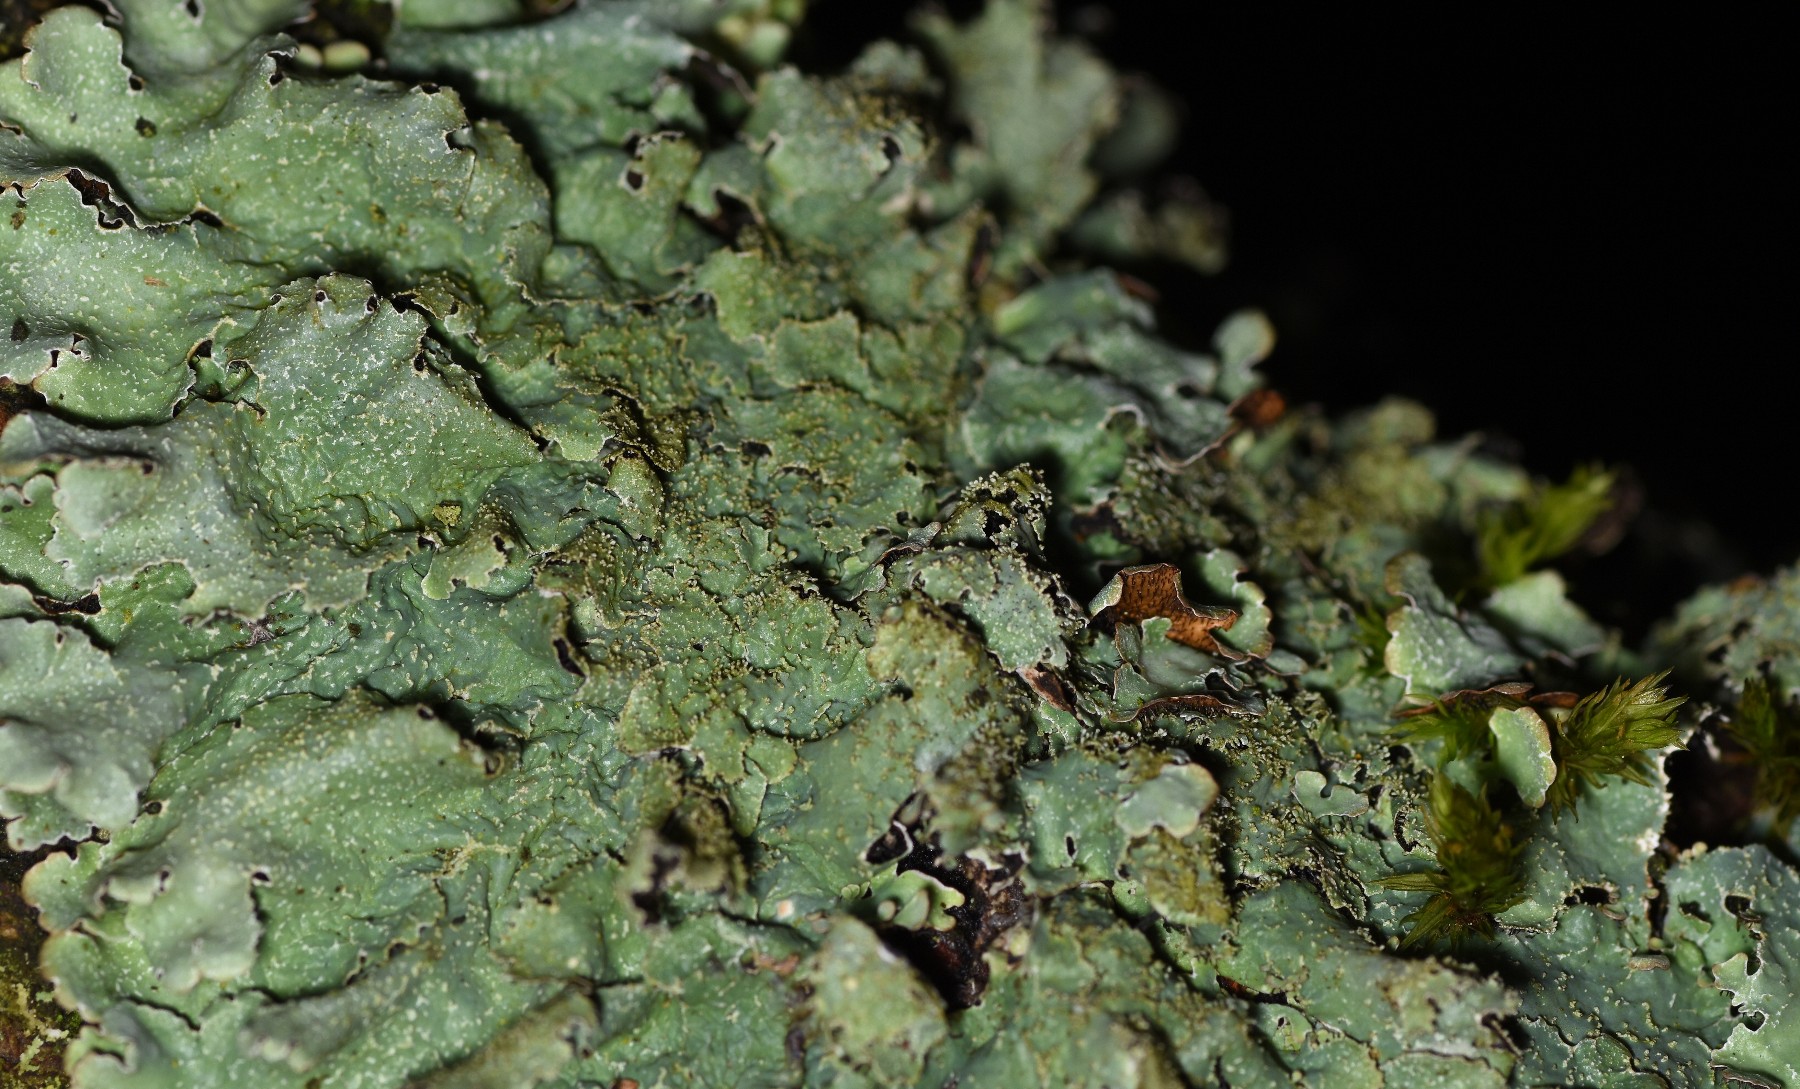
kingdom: Fungi
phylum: Ascomycota
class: Lecanoromycetes
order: Lecanorales
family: Parmeliaceae
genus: Parmelia
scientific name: Parmelia saxatilis
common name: farve-skållav
